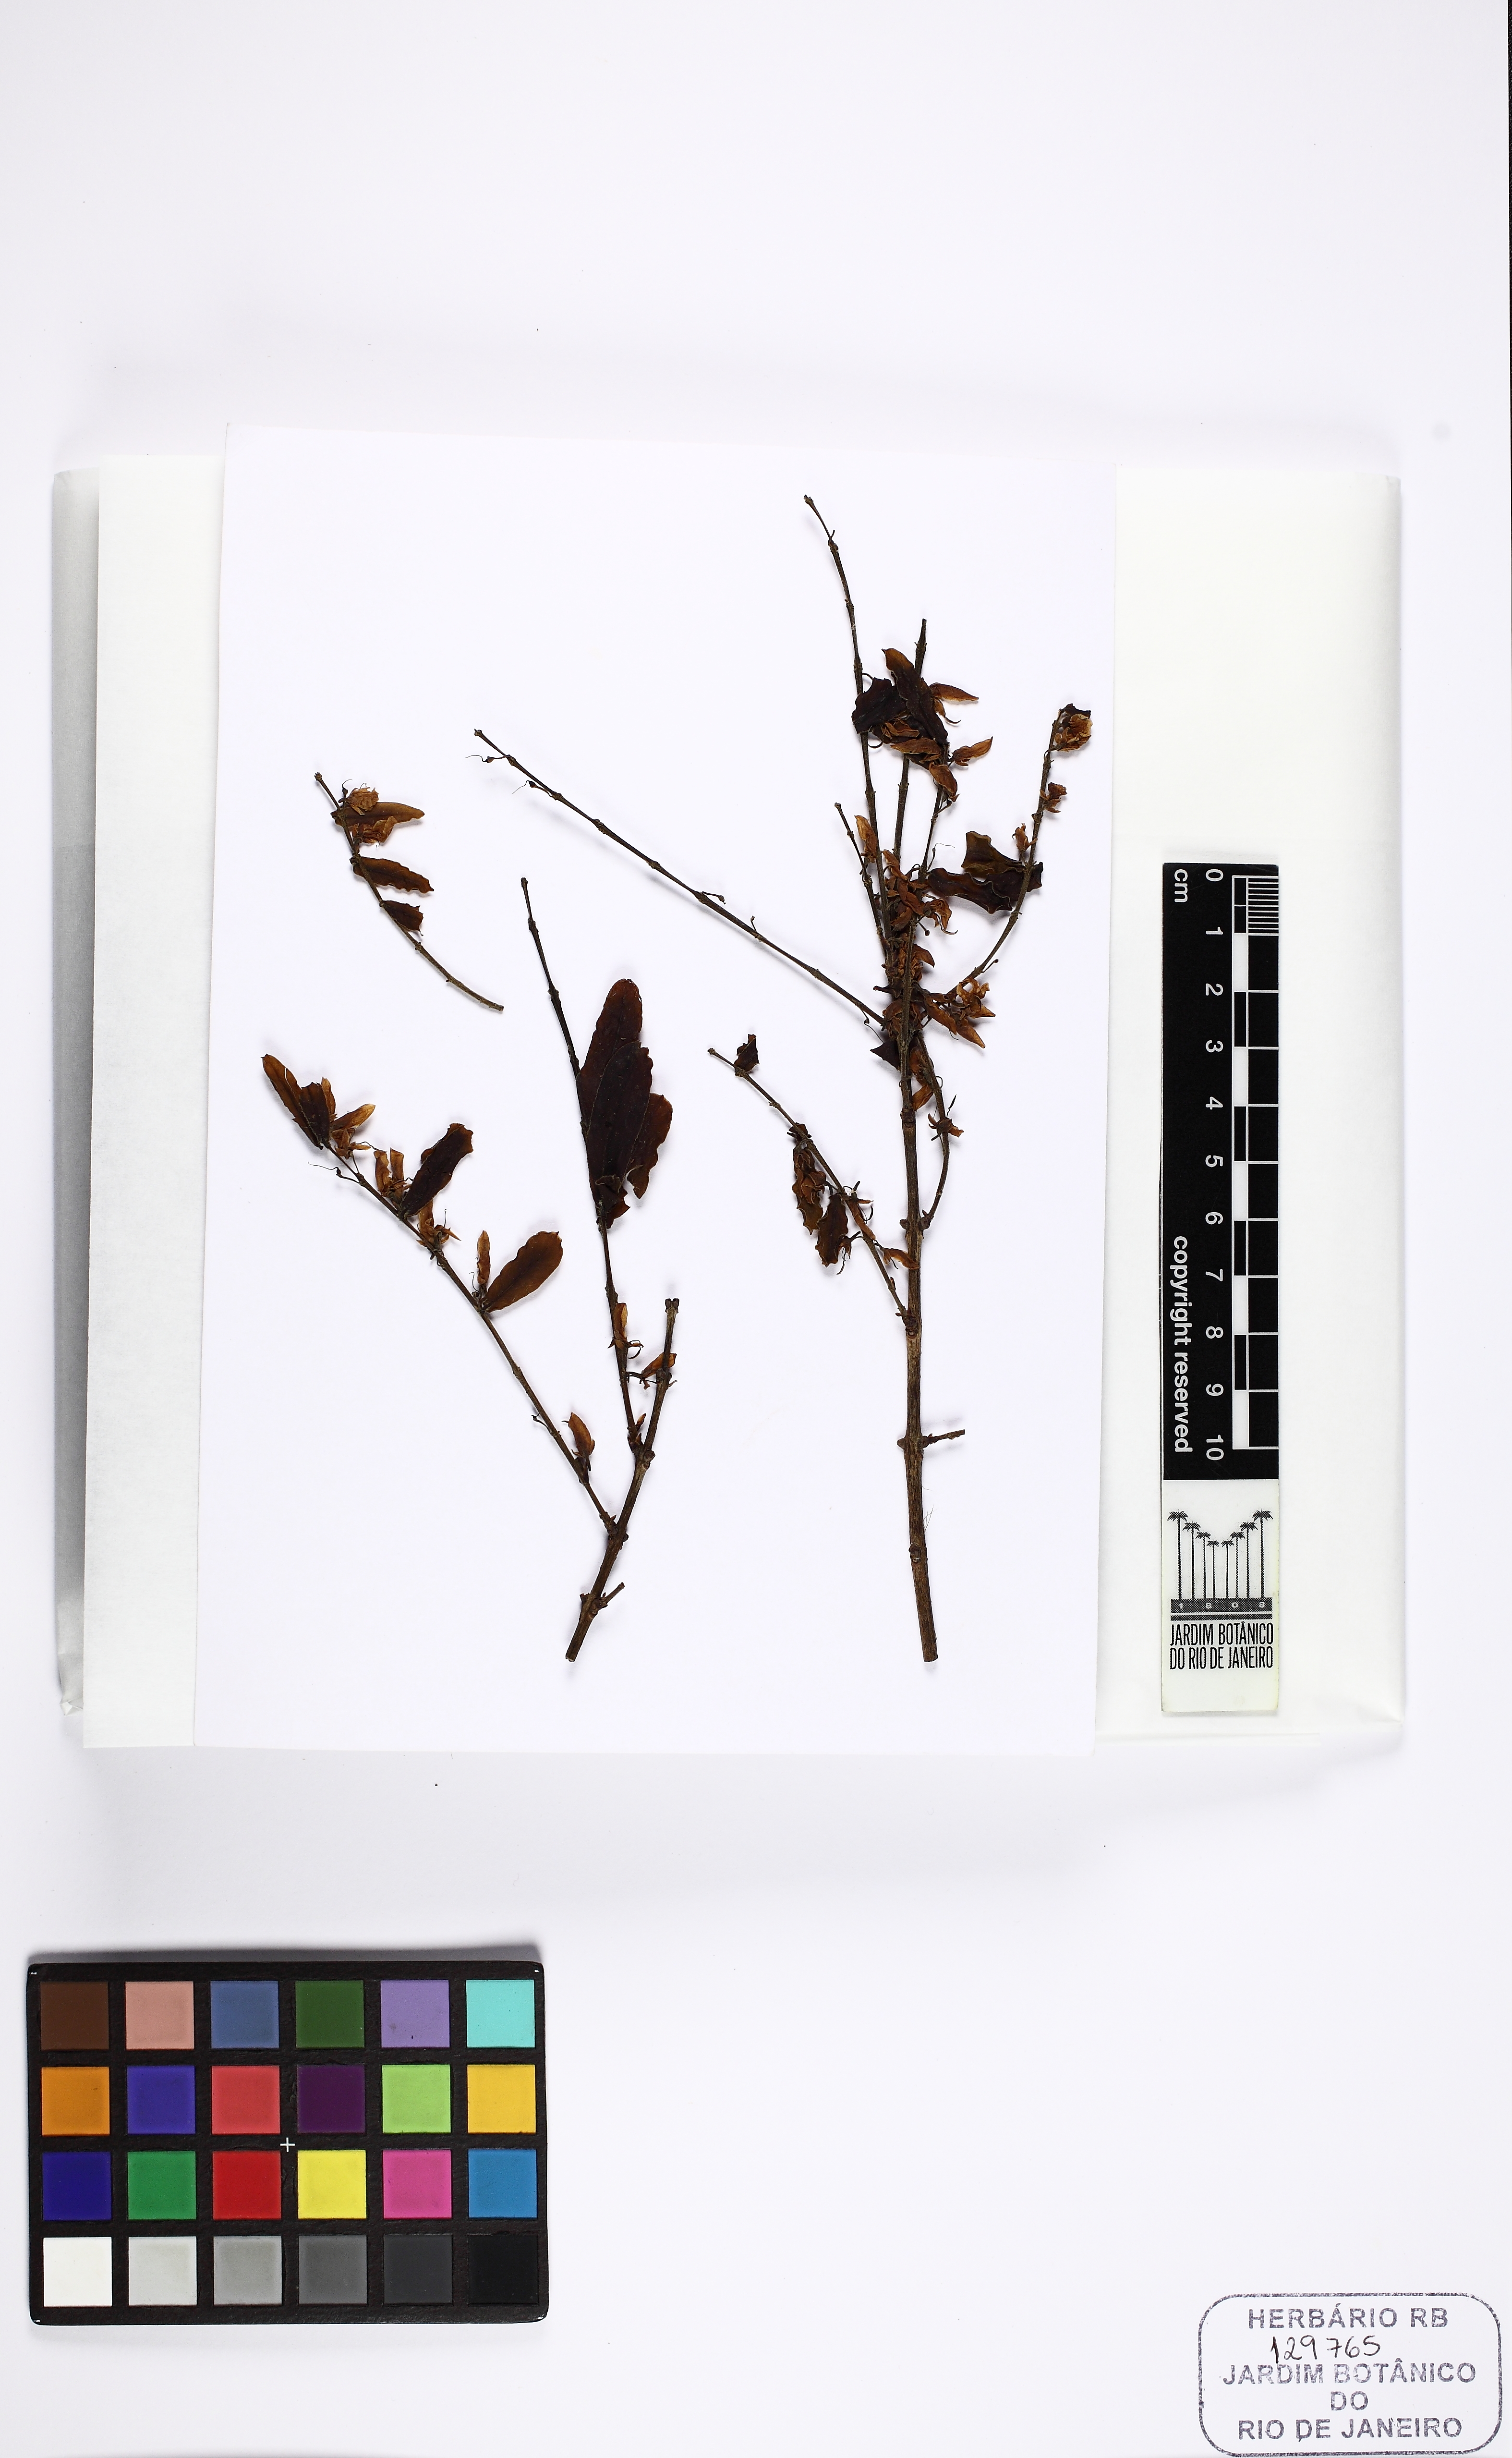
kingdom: Plantae
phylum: Tracheophyta
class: Magnoliopsida
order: Myrtales
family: Vochysiaceae
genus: Callisthene
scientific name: Callisthene major
